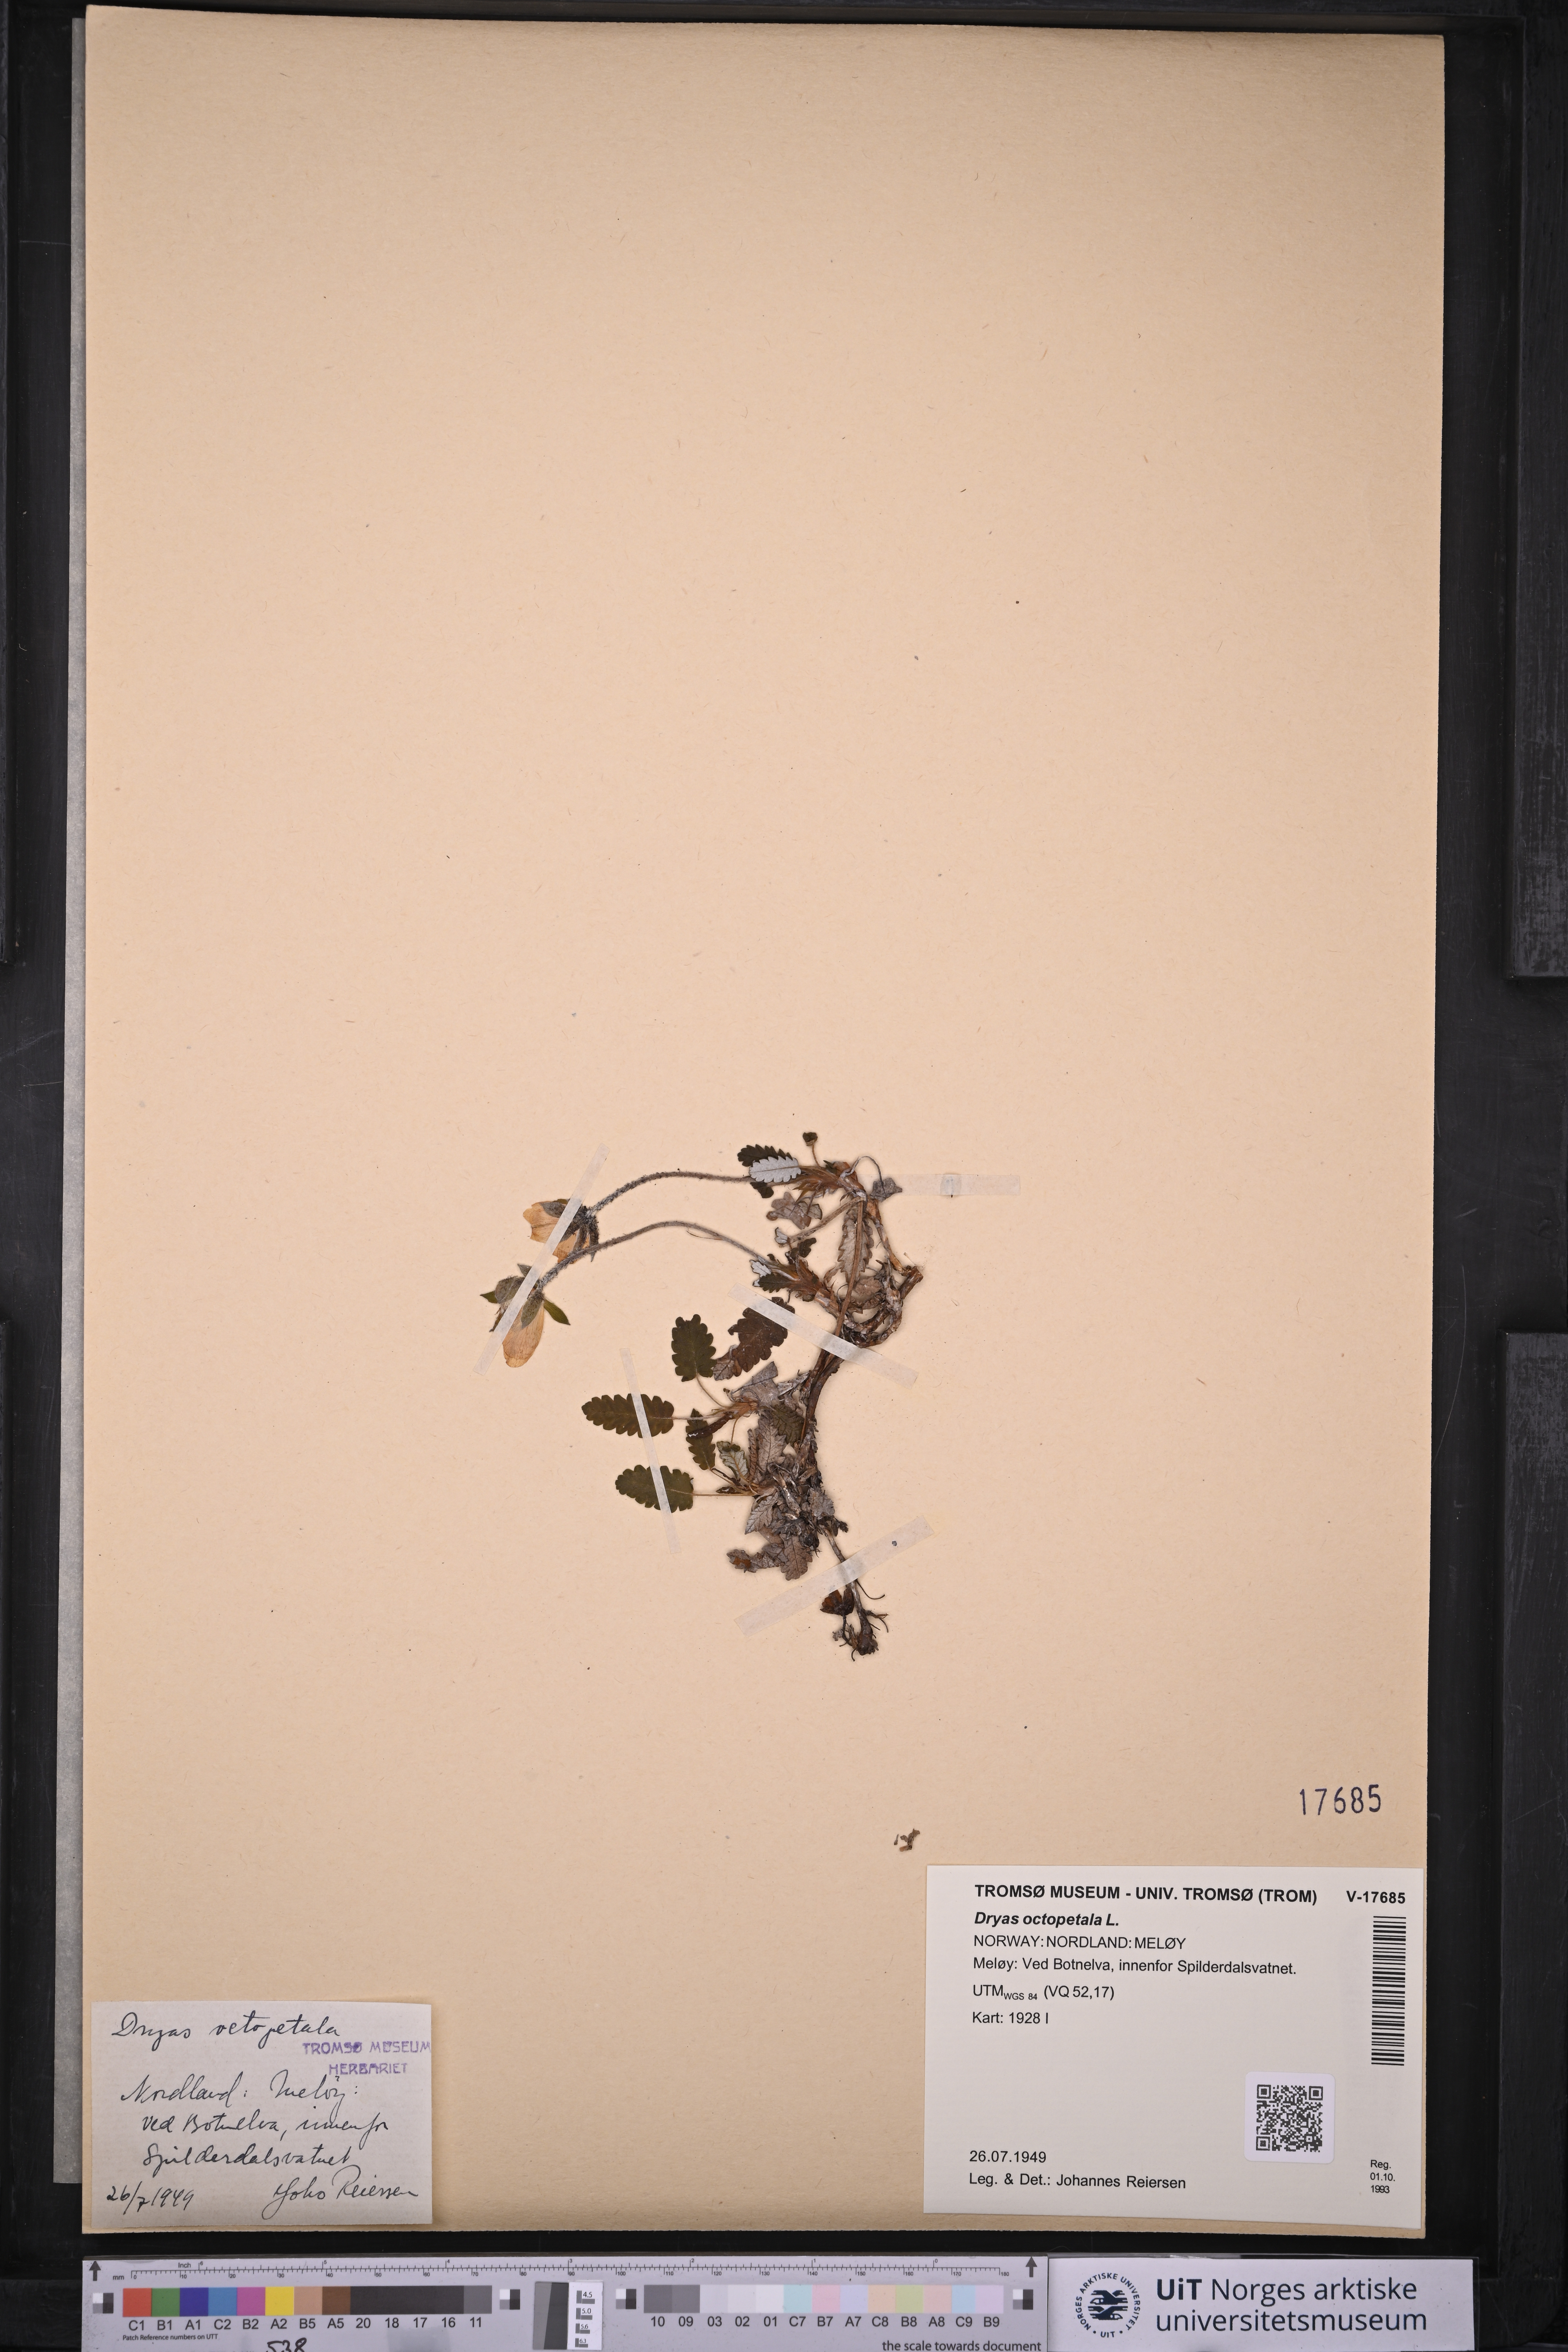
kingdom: Plantae
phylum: Tracheophyta
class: Magnoliopsida
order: Rosales
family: Rosaceae
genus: Dryas
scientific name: Dryas octopetala
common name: Eight-petal mountain-avens
